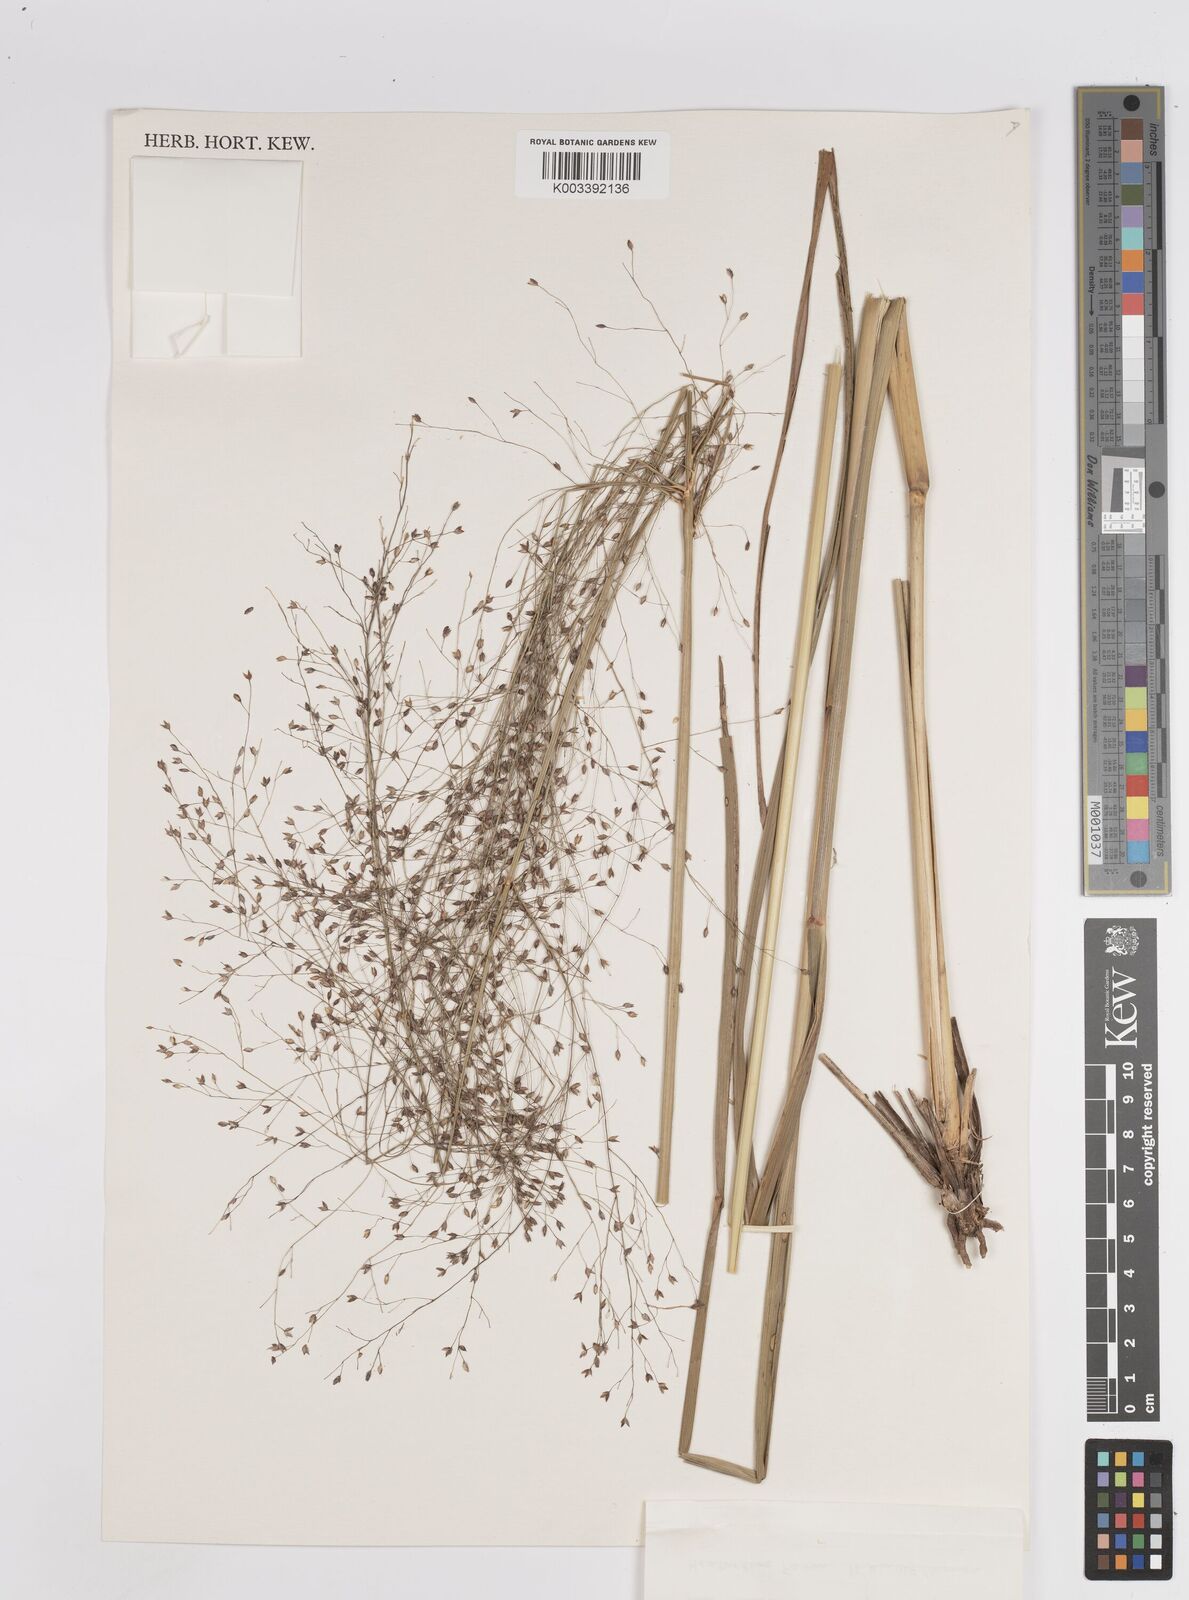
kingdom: Plantae
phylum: Tracheophyta
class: Liliopsida
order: Poales
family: Poaceae
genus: Panicum
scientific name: Panicum phragmitoides
